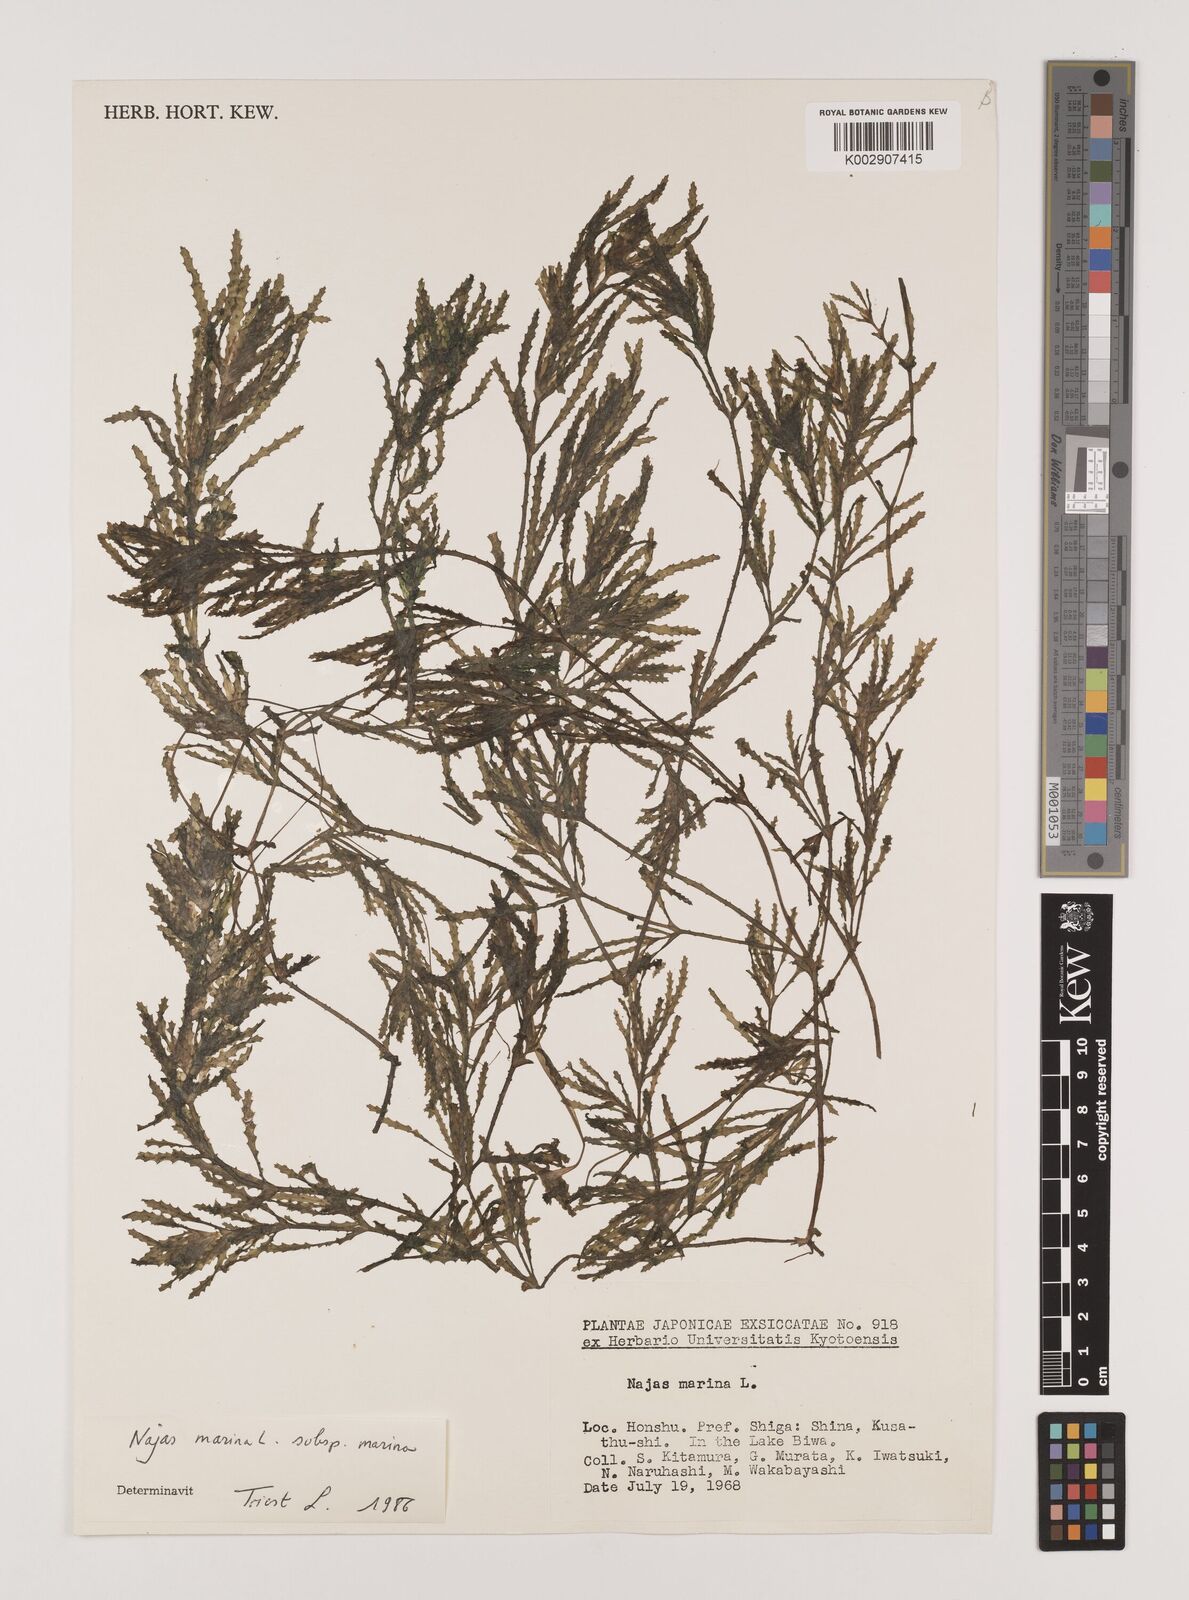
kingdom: Plantae
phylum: Tracheophyta
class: Liliopsida
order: Alismatales
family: Hydrocharitaceae
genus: Najas
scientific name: Najas marina
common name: Holly-leaved naiad
